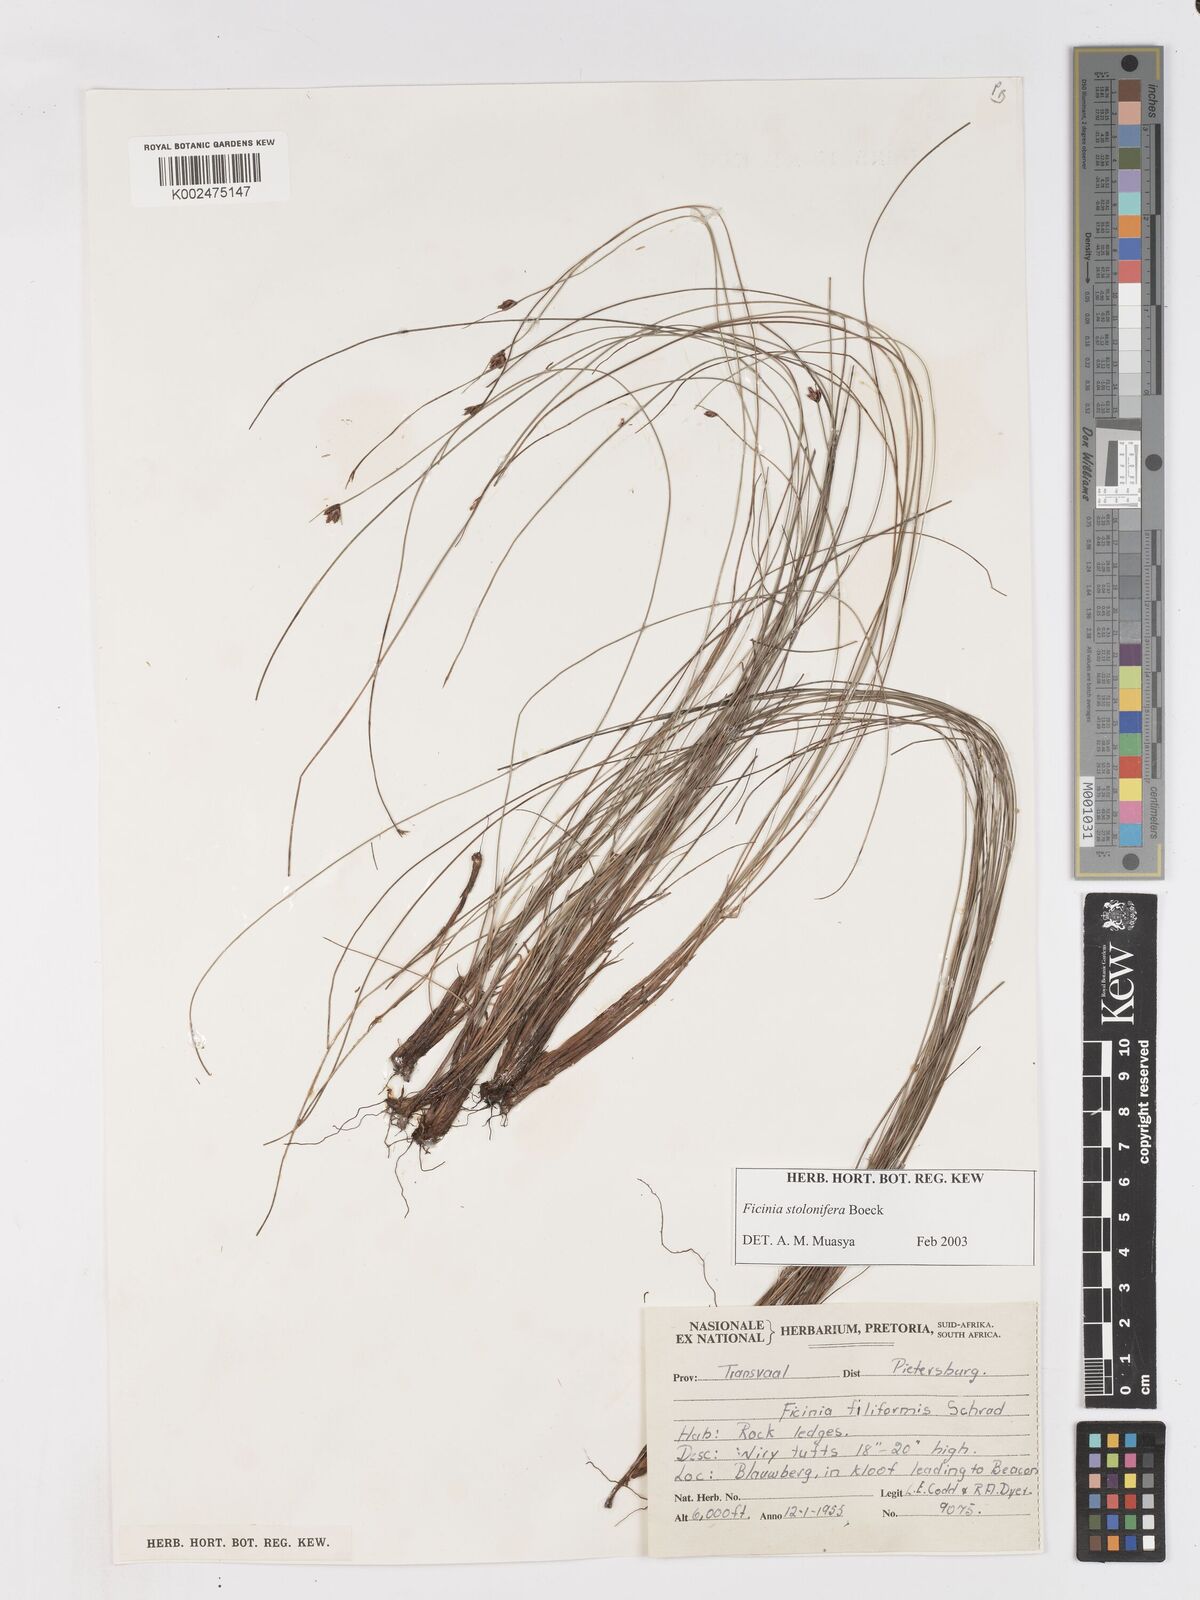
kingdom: Plantae
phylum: Tracheophyta
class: Liliopsida
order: Poales
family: Cyperaceae
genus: Ficinia
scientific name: Ficinia stolonifera
